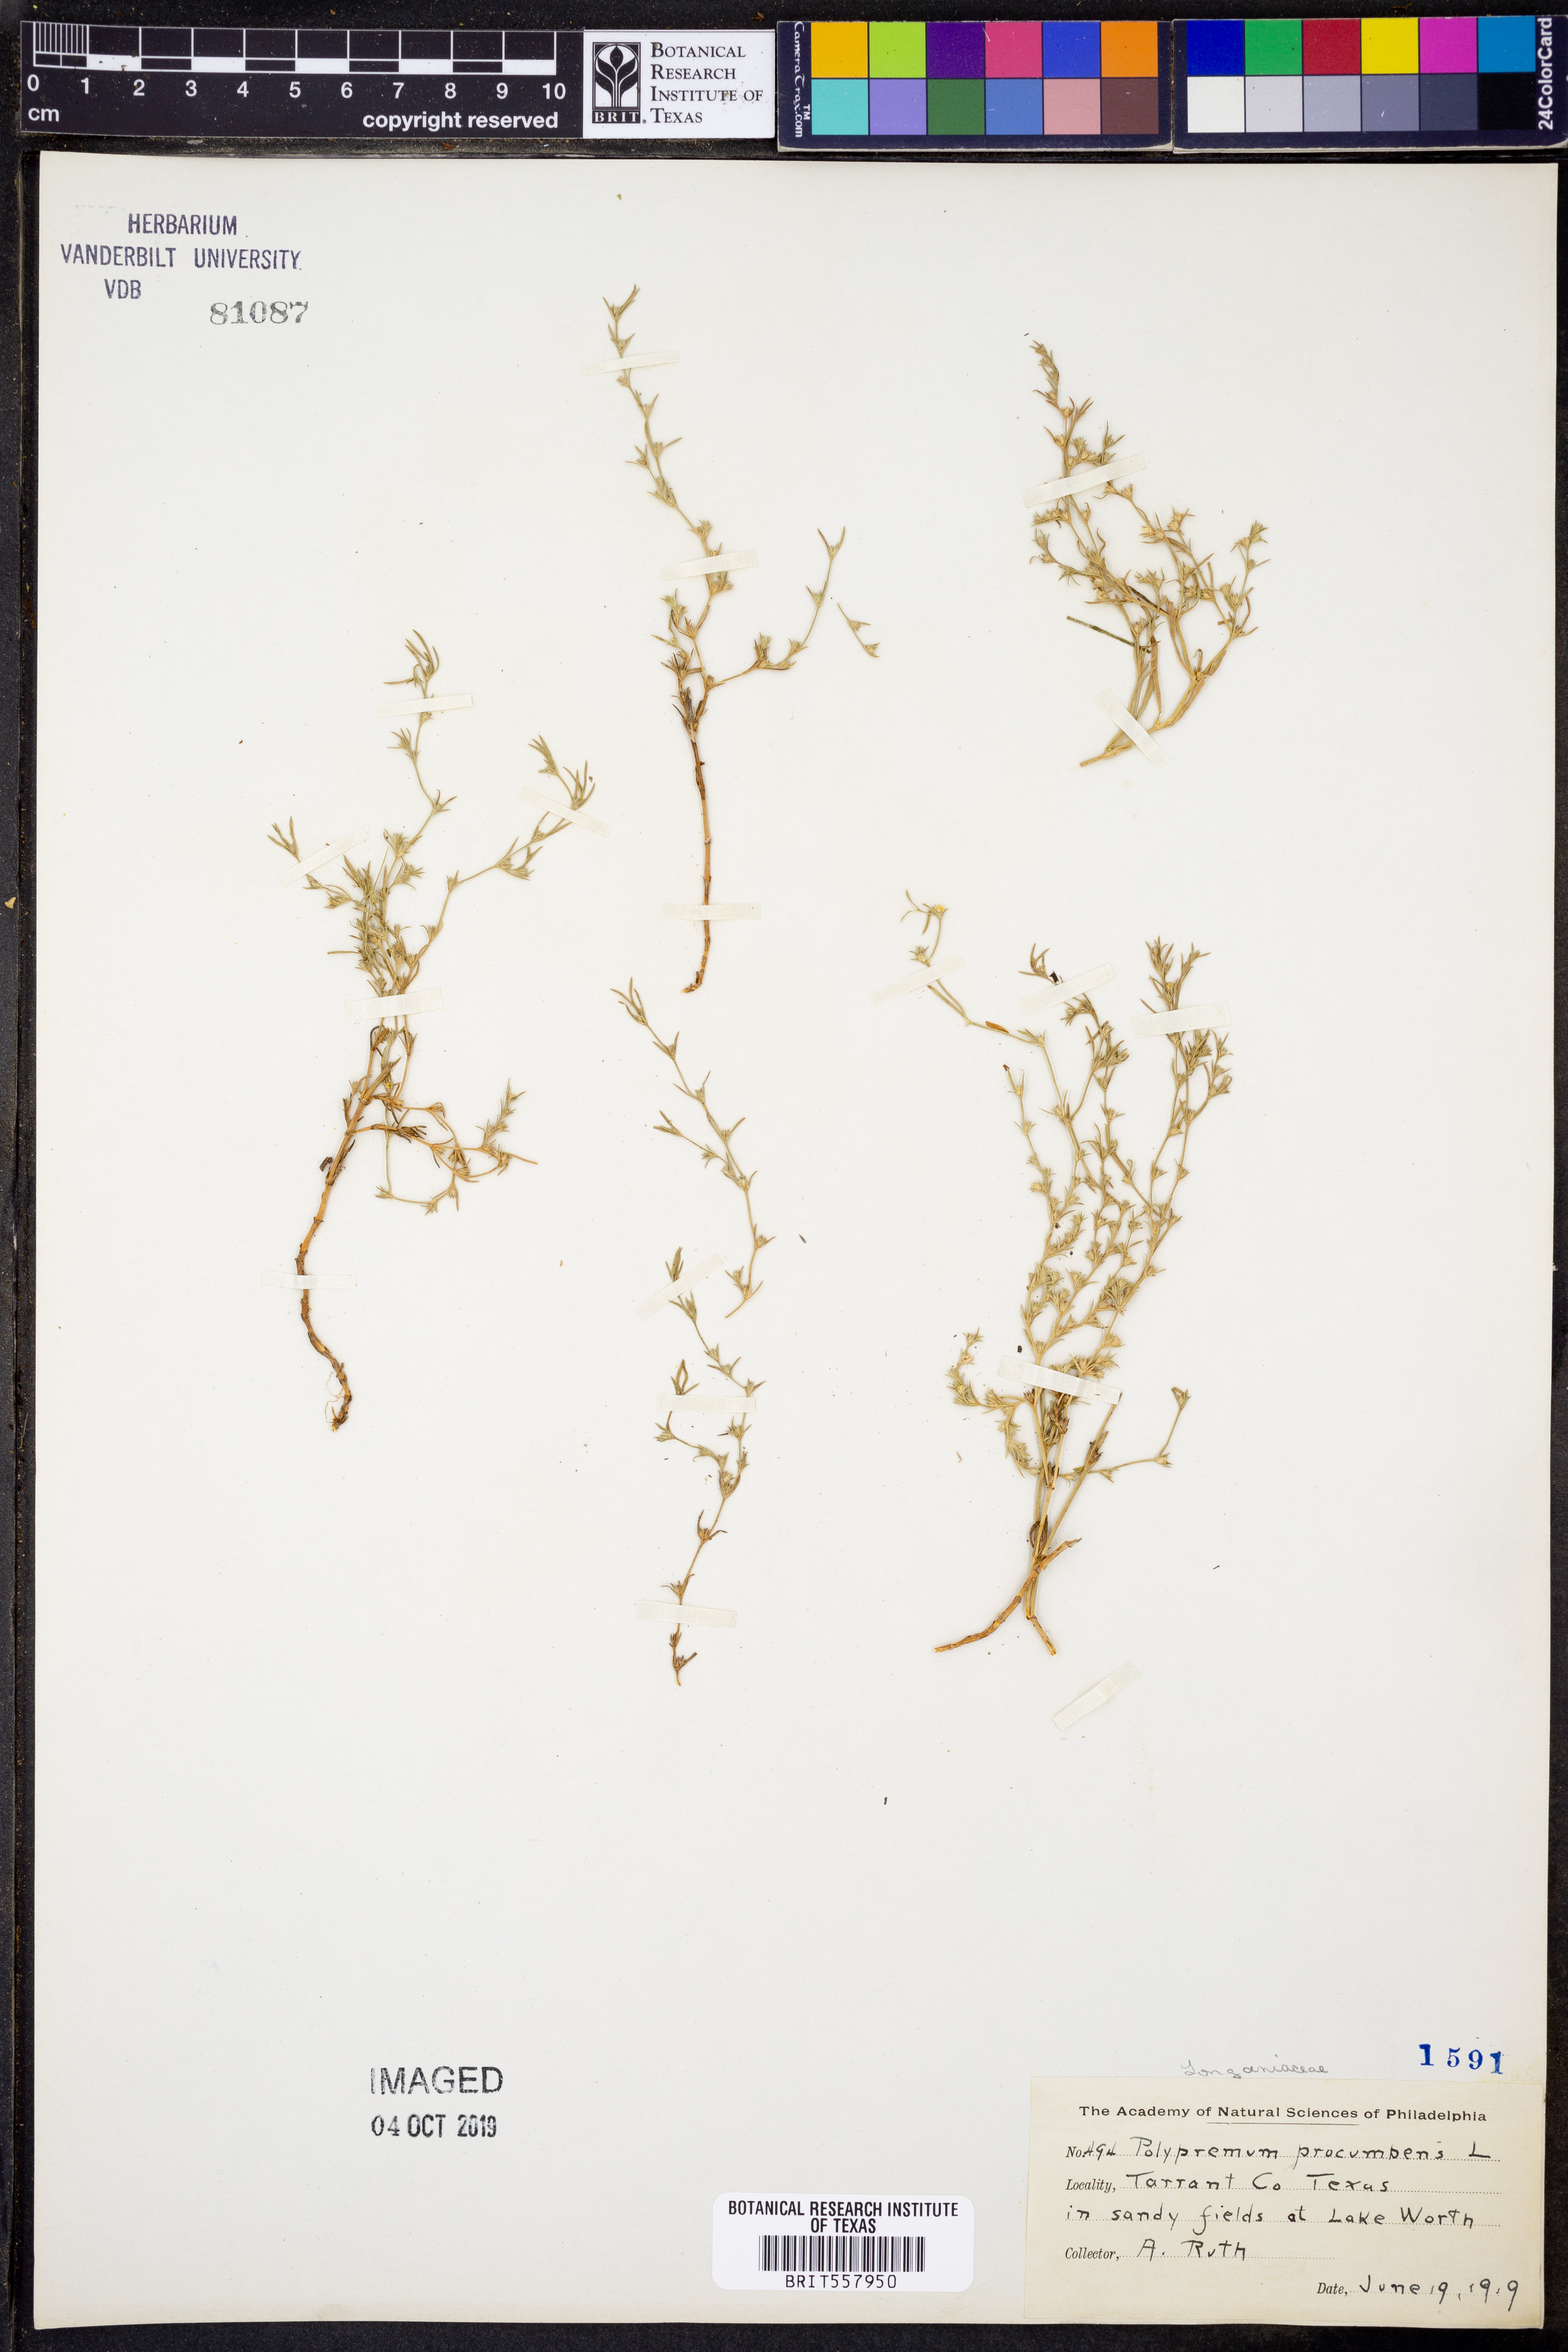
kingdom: Plantae
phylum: Tracheophyta
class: Magnoliopsida
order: Lamiales
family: Tetrachondraceae
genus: Polypremum
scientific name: Polypremum procumbens
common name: Juniper-leaf
